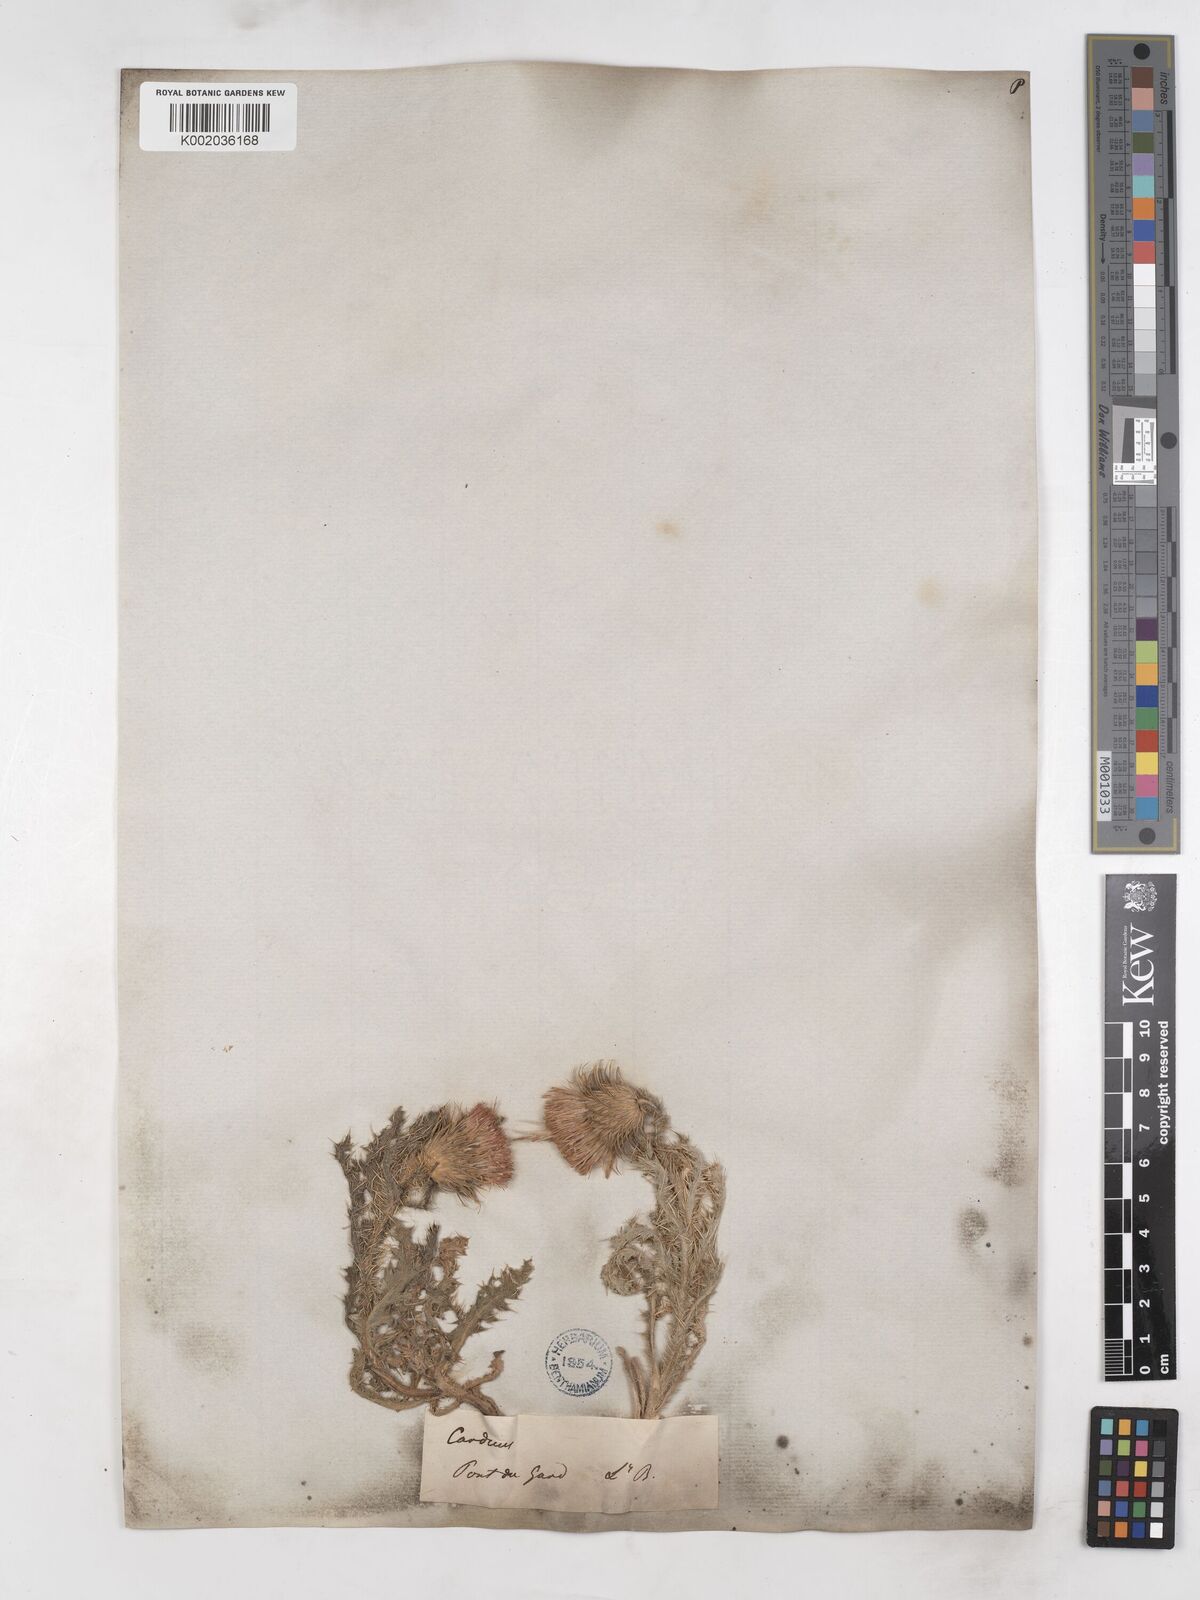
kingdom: Plantae
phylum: Tracheophyta
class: Magnoliopsida
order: Asterales
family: Asteraceae
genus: Carduus
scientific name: Carduus nigrescens
